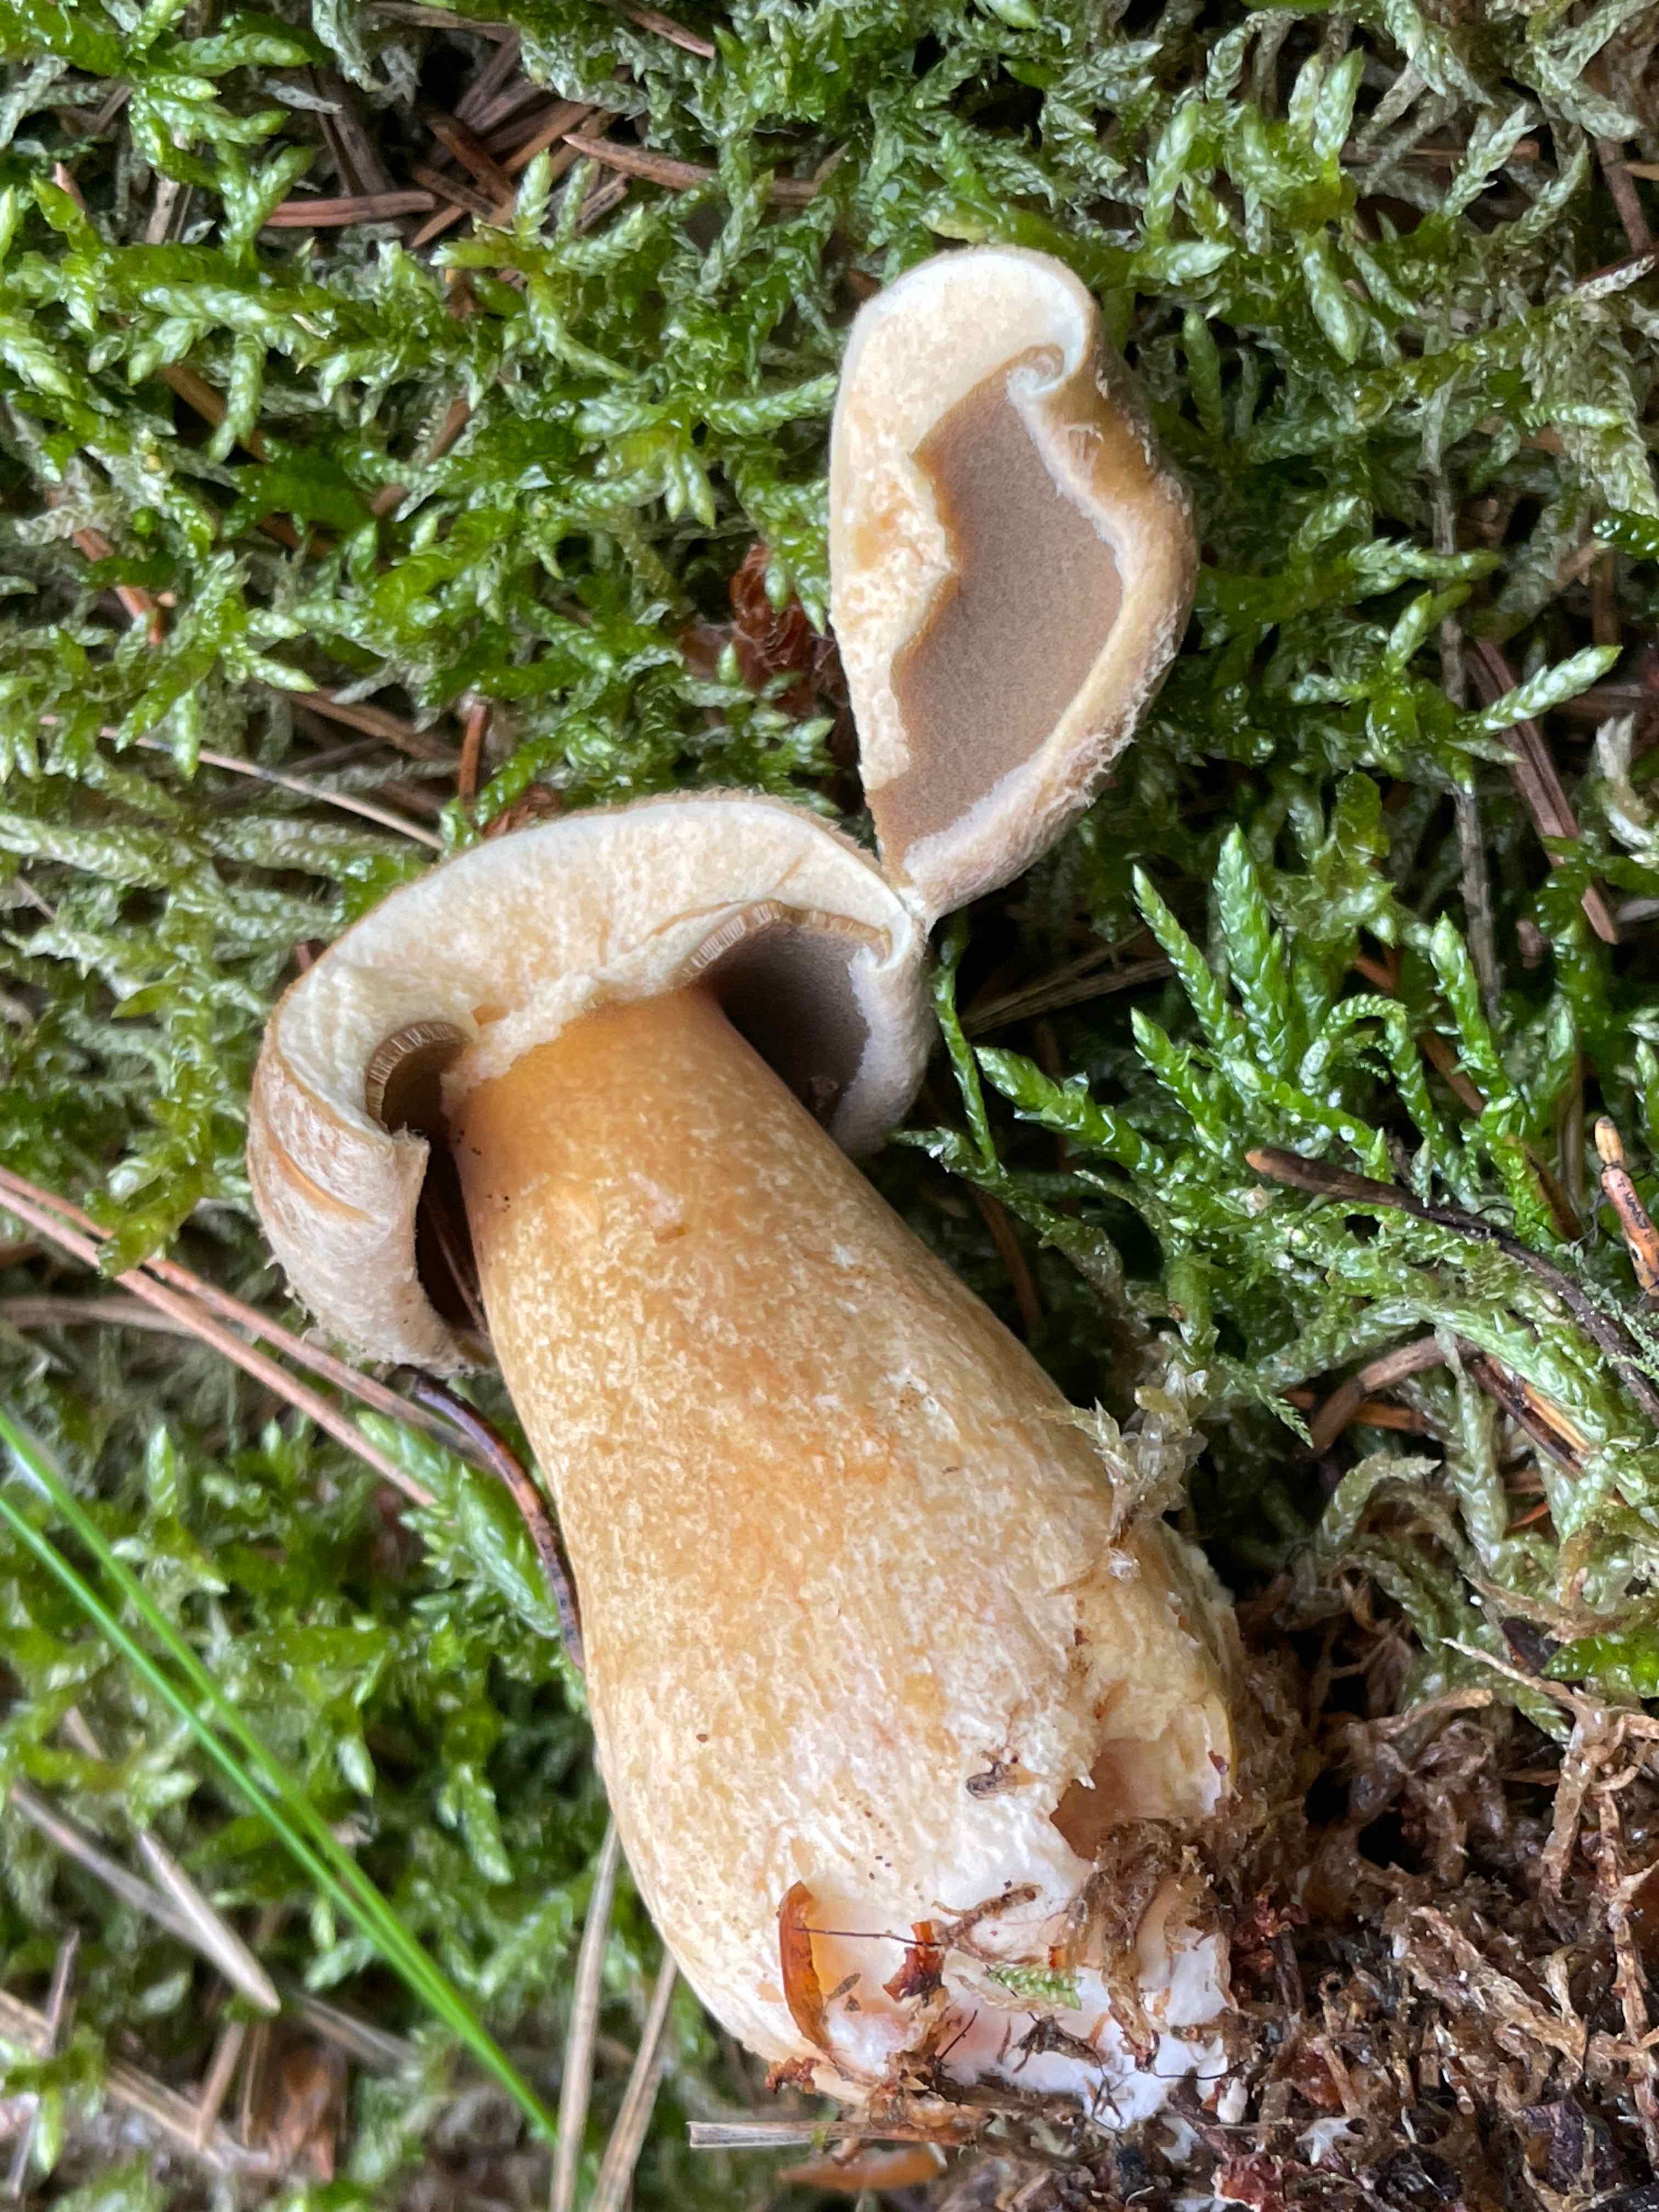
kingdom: Fungi
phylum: Basidiomycota
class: Agaricomycetes
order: Boletales
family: Suillaceae
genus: Suillus
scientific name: Suillus variegatus
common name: broget slimrørhat
